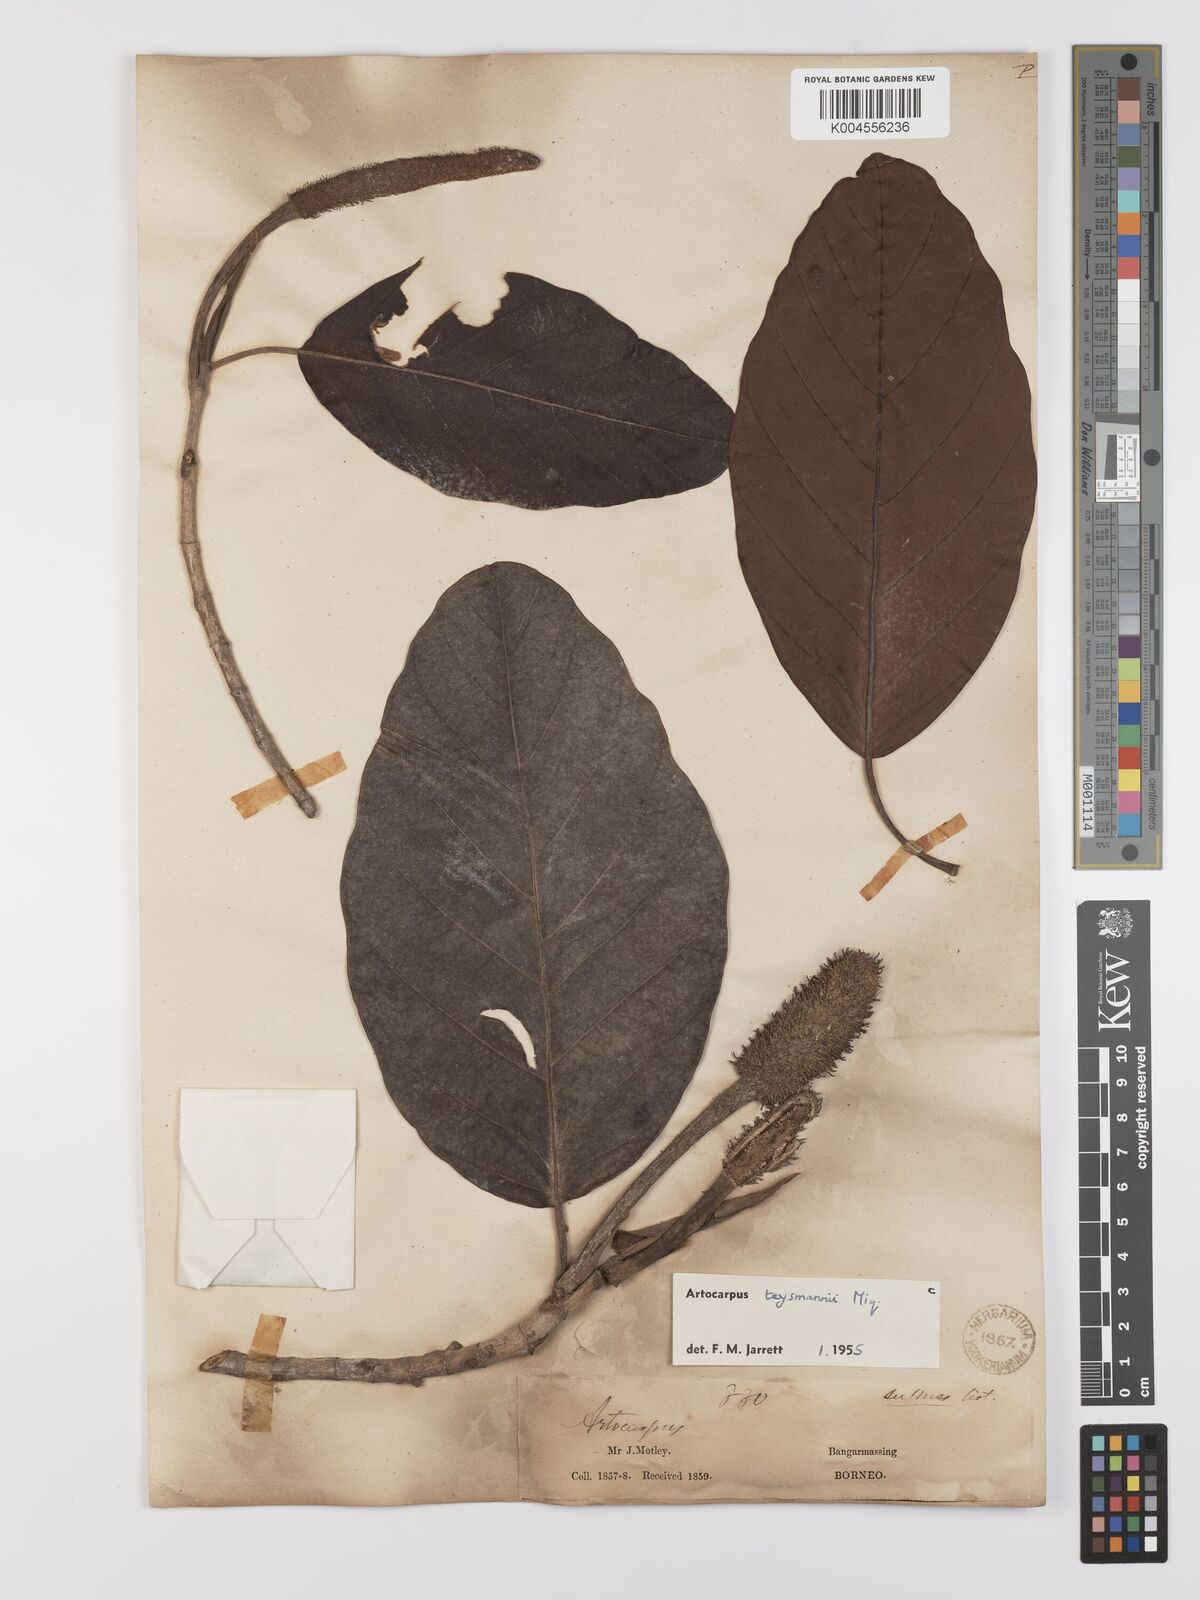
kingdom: Plantae
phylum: Tracheophyta
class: Magnoliopsida
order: Rosales
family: Moraceae
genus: Artocarpus
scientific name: Artocarpus teysmannii
